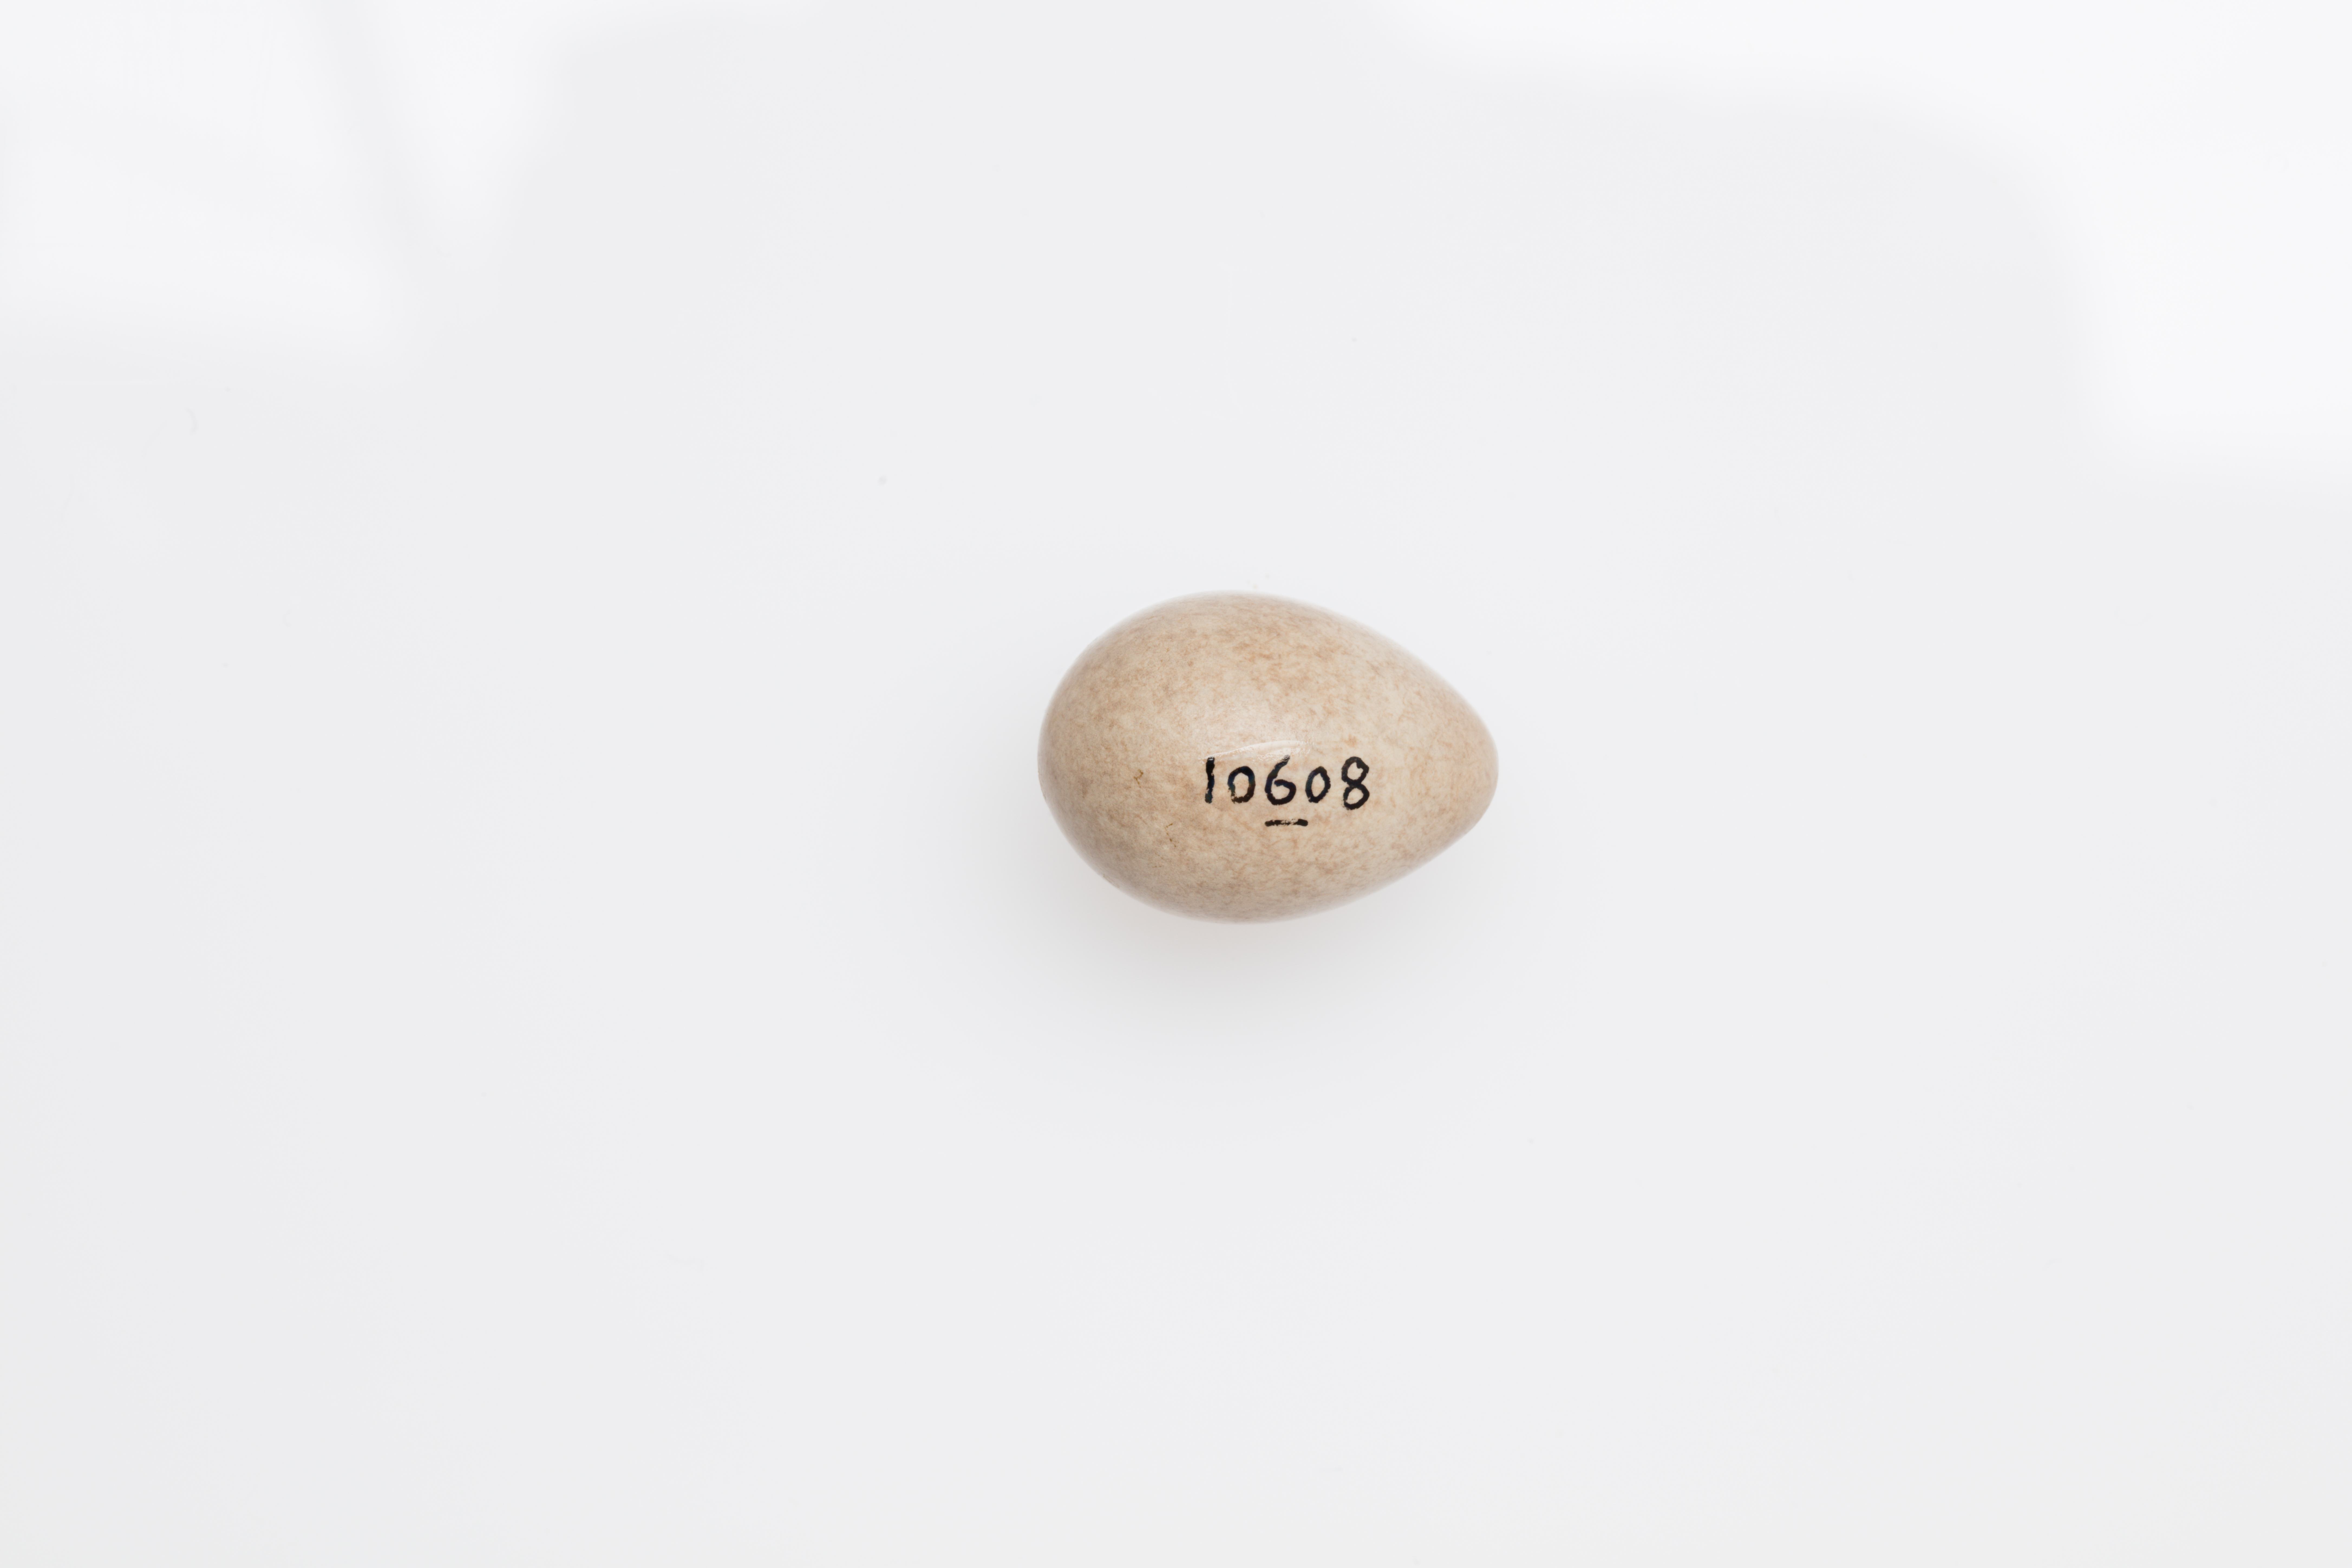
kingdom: Animalia
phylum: Chordata
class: Aves
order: Passeriformes
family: Motacillidae
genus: Motacilla
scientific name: Motacilla flava
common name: Western yellow wagtail
